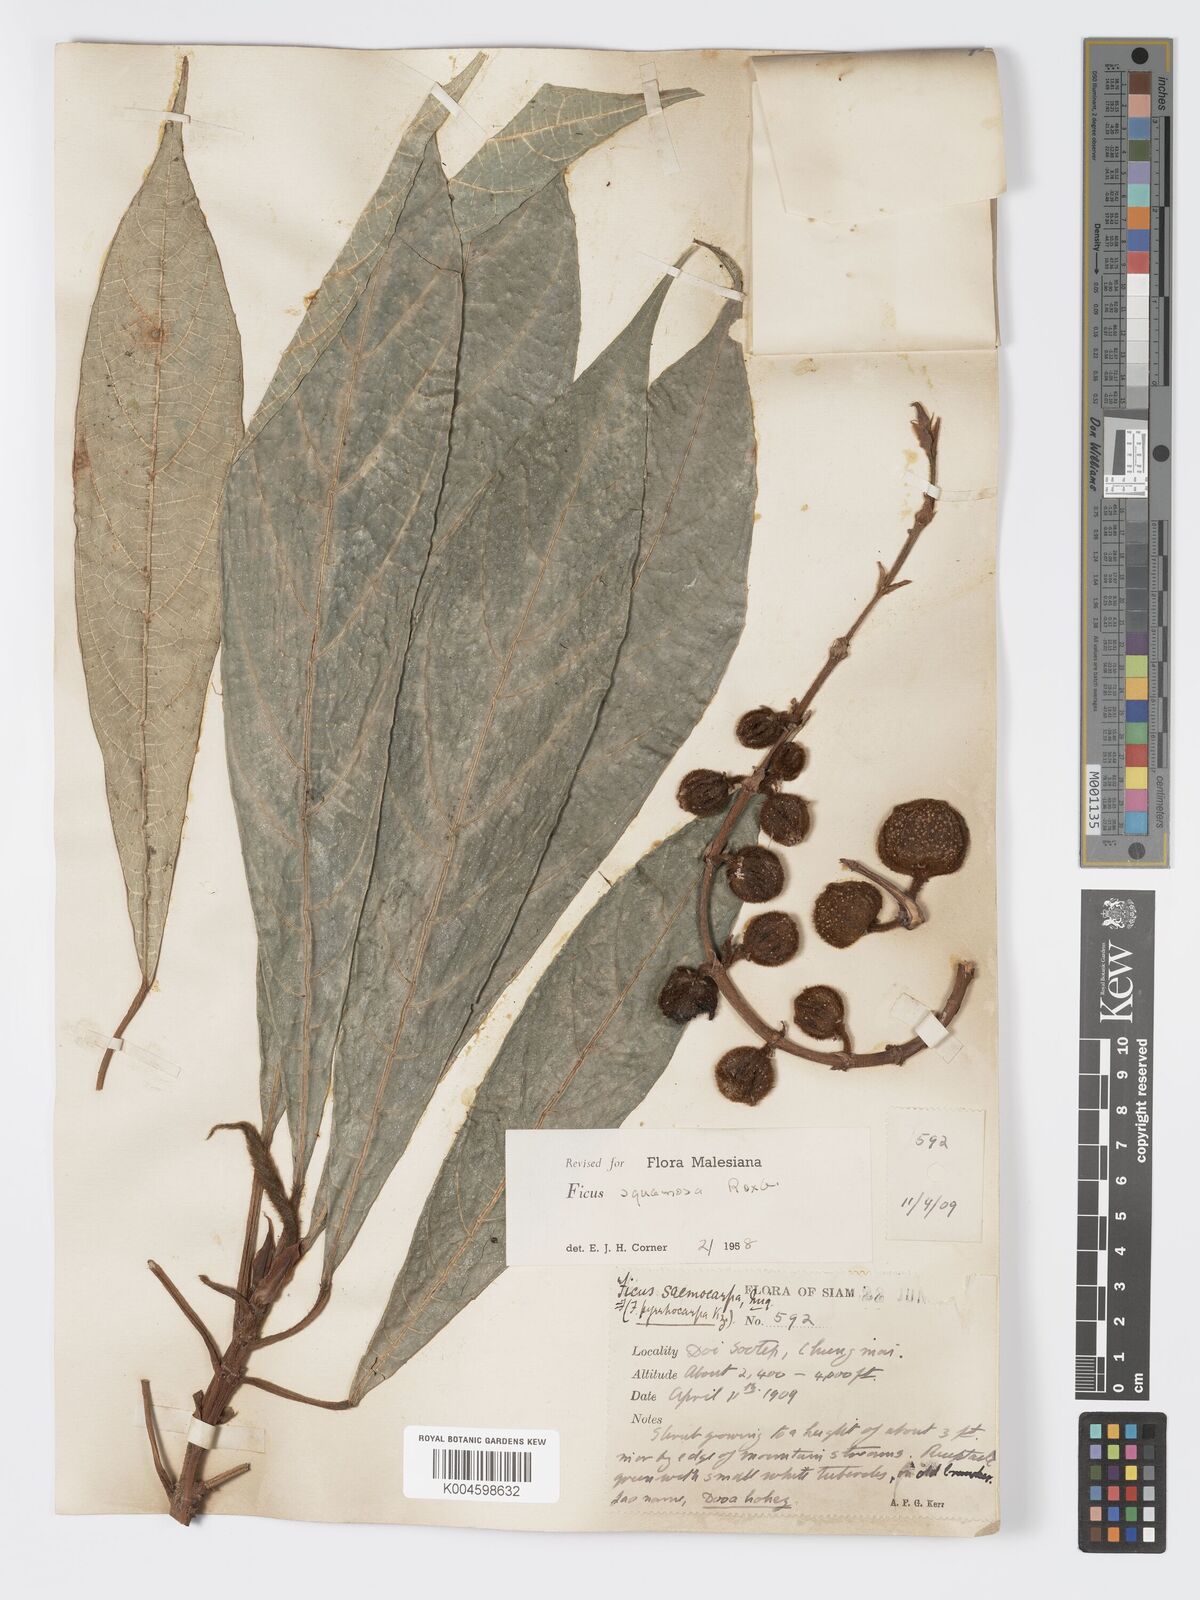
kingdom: Plantae
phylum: Tracheophyta
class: Magnoliopsida
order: Rosales
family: Moraceae
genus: Ficus
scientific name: Ficus squamosa
